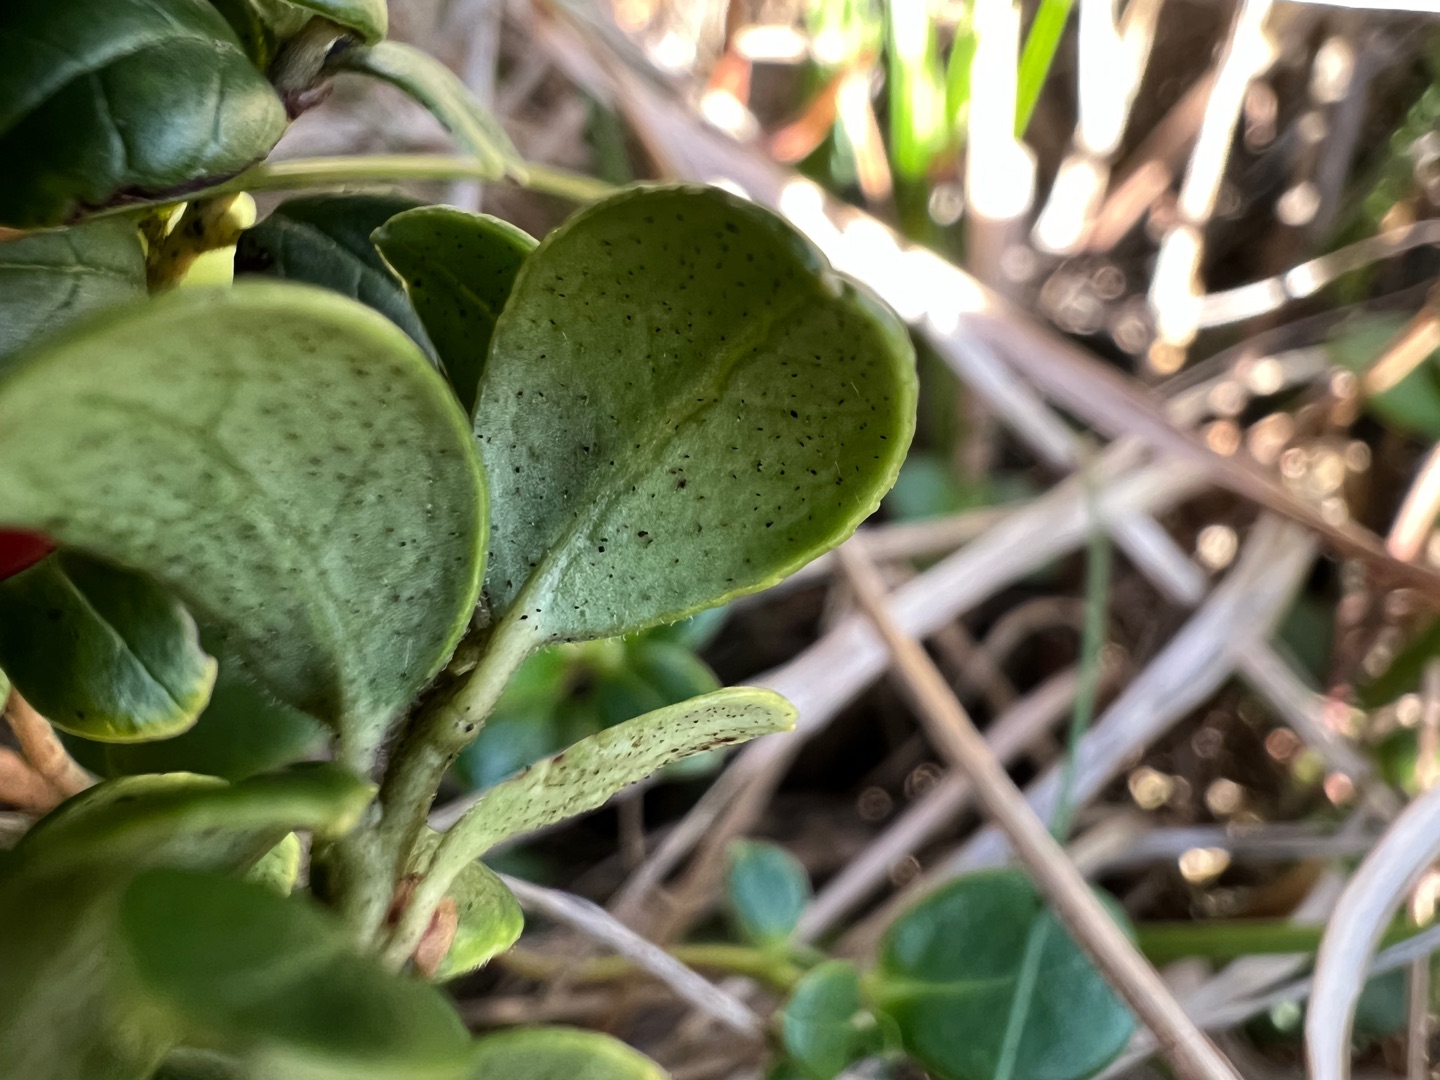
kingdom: Plantae
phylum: Tracheophyta
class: Magnoliopsida
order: Ericales
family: Ericaceae
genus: Vaccinium
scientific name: Vaccinium vitis-idaea
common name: Tyttebær
